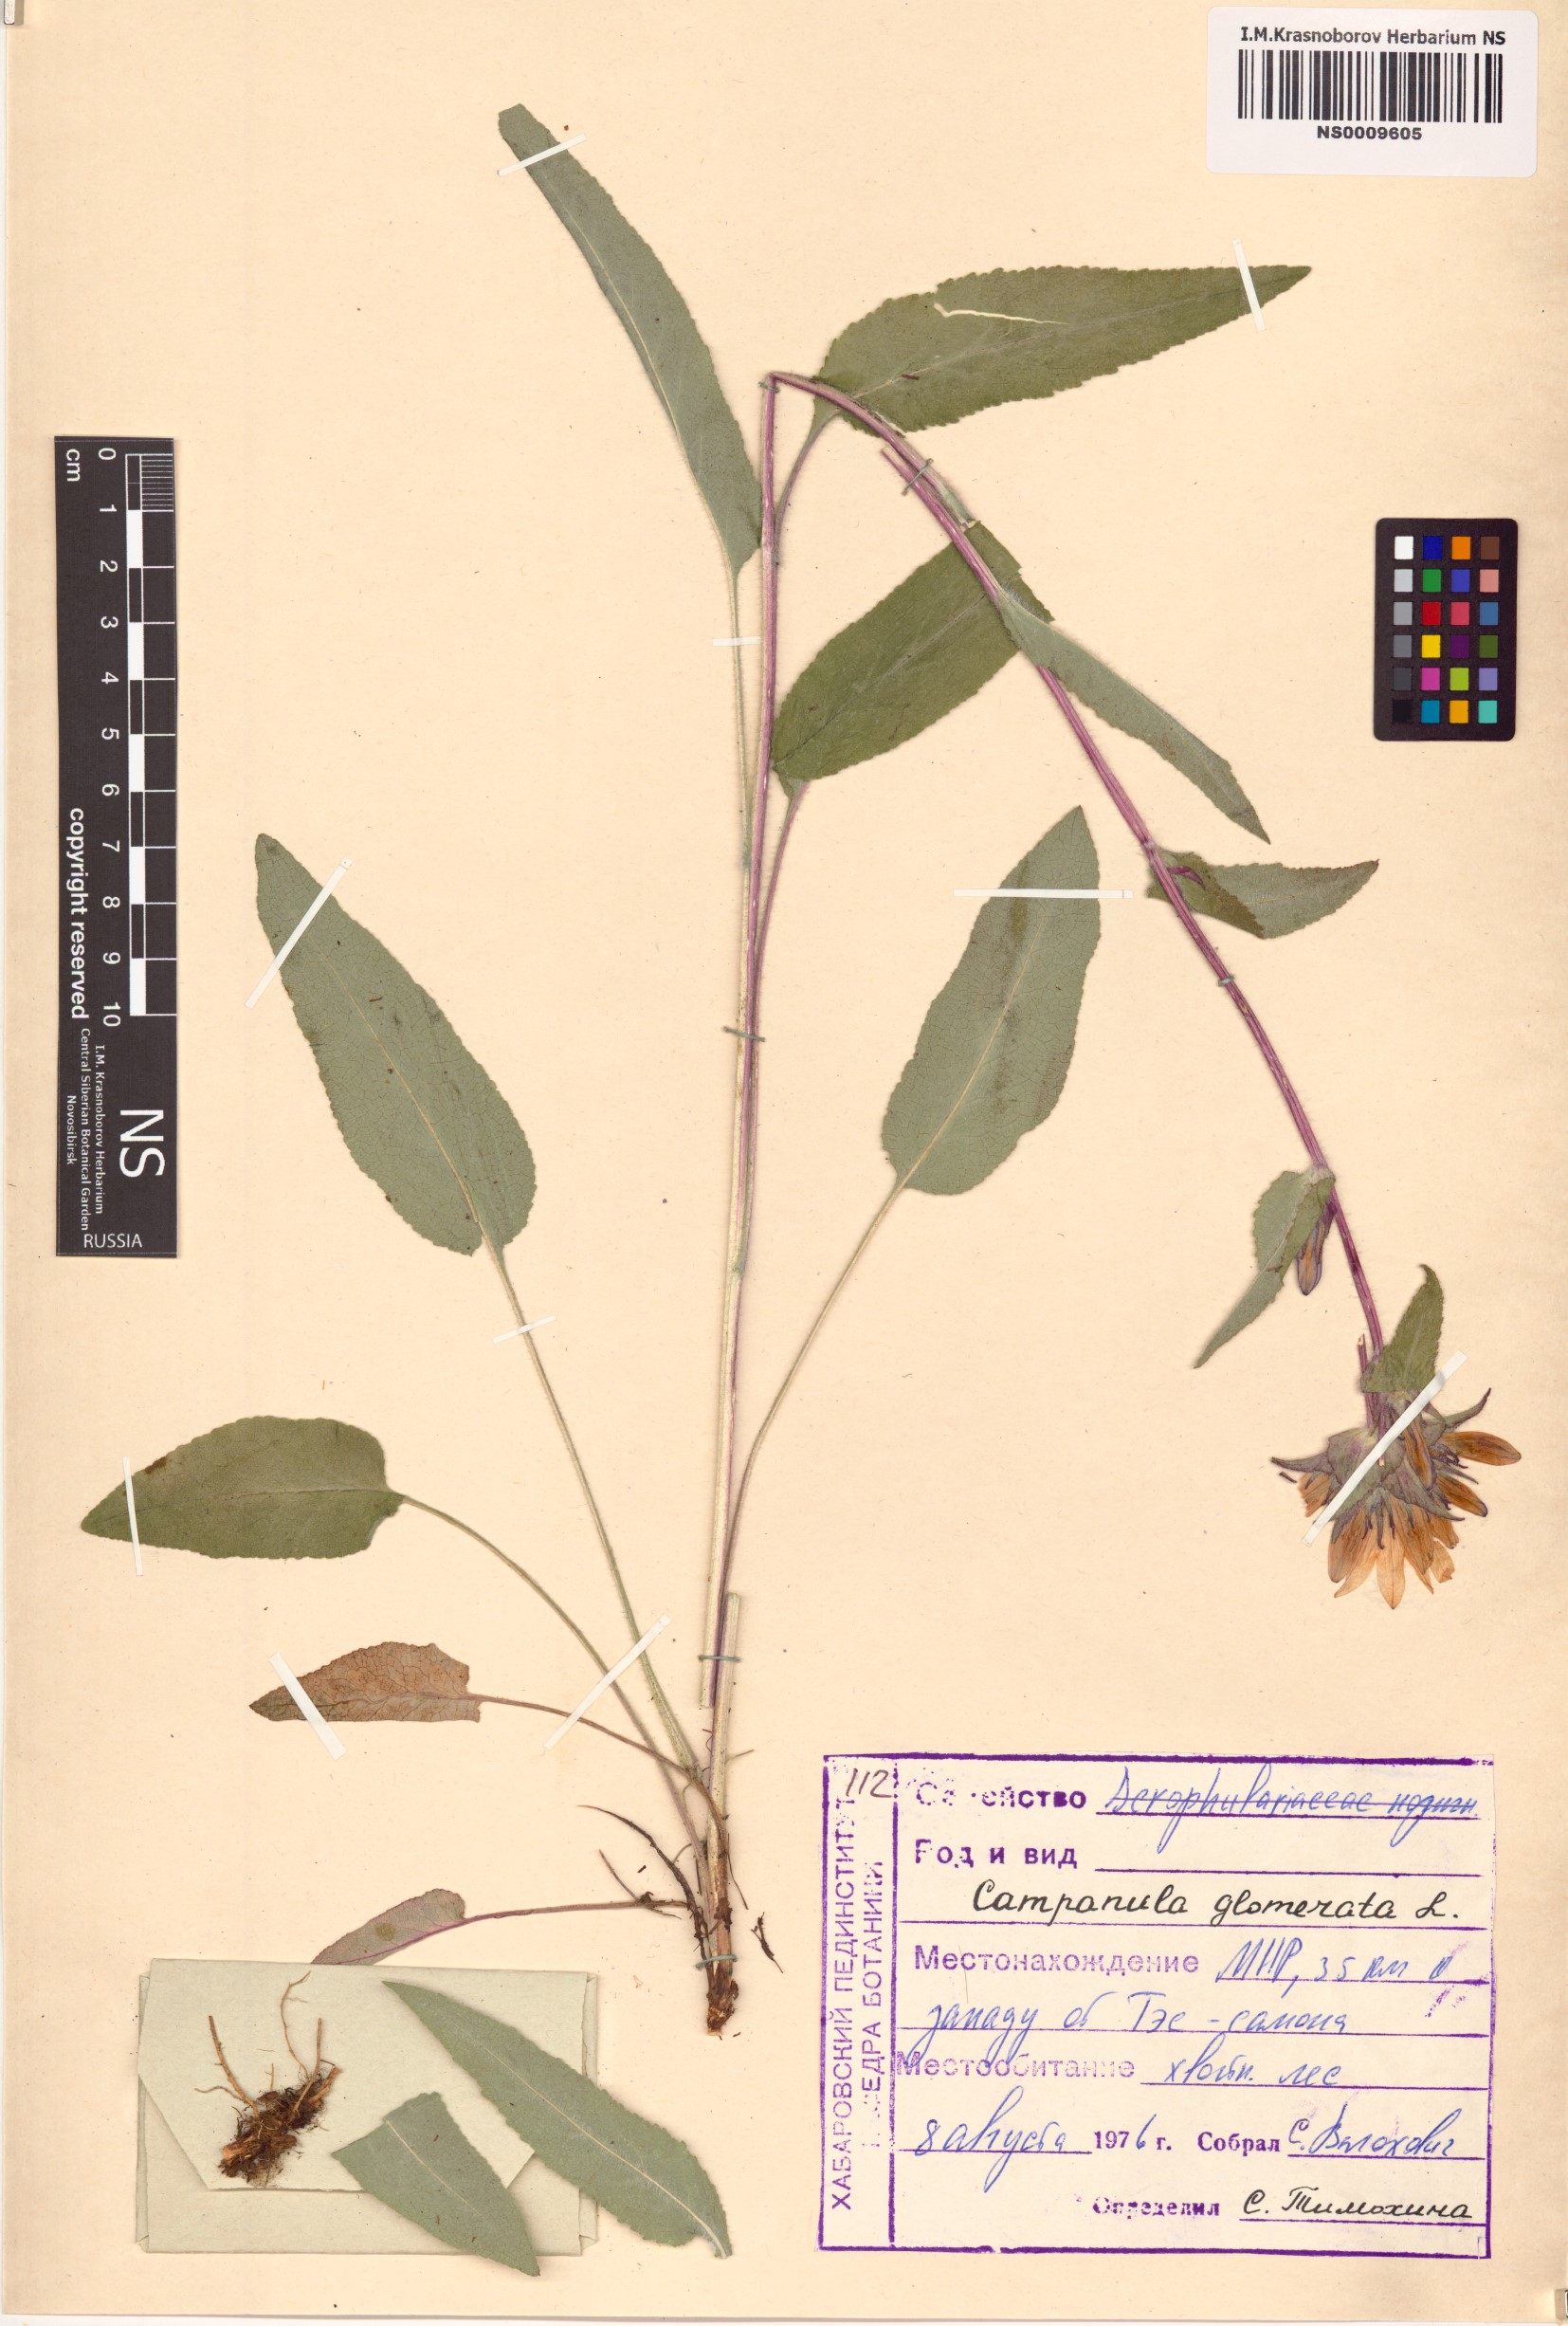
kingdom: Plantae
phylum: Tracheophyta
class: Magnoliopsida
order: Asterales
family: Campanulaceae
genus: Campanula
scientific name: Campanula glomerata
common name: Clustered bellflower
